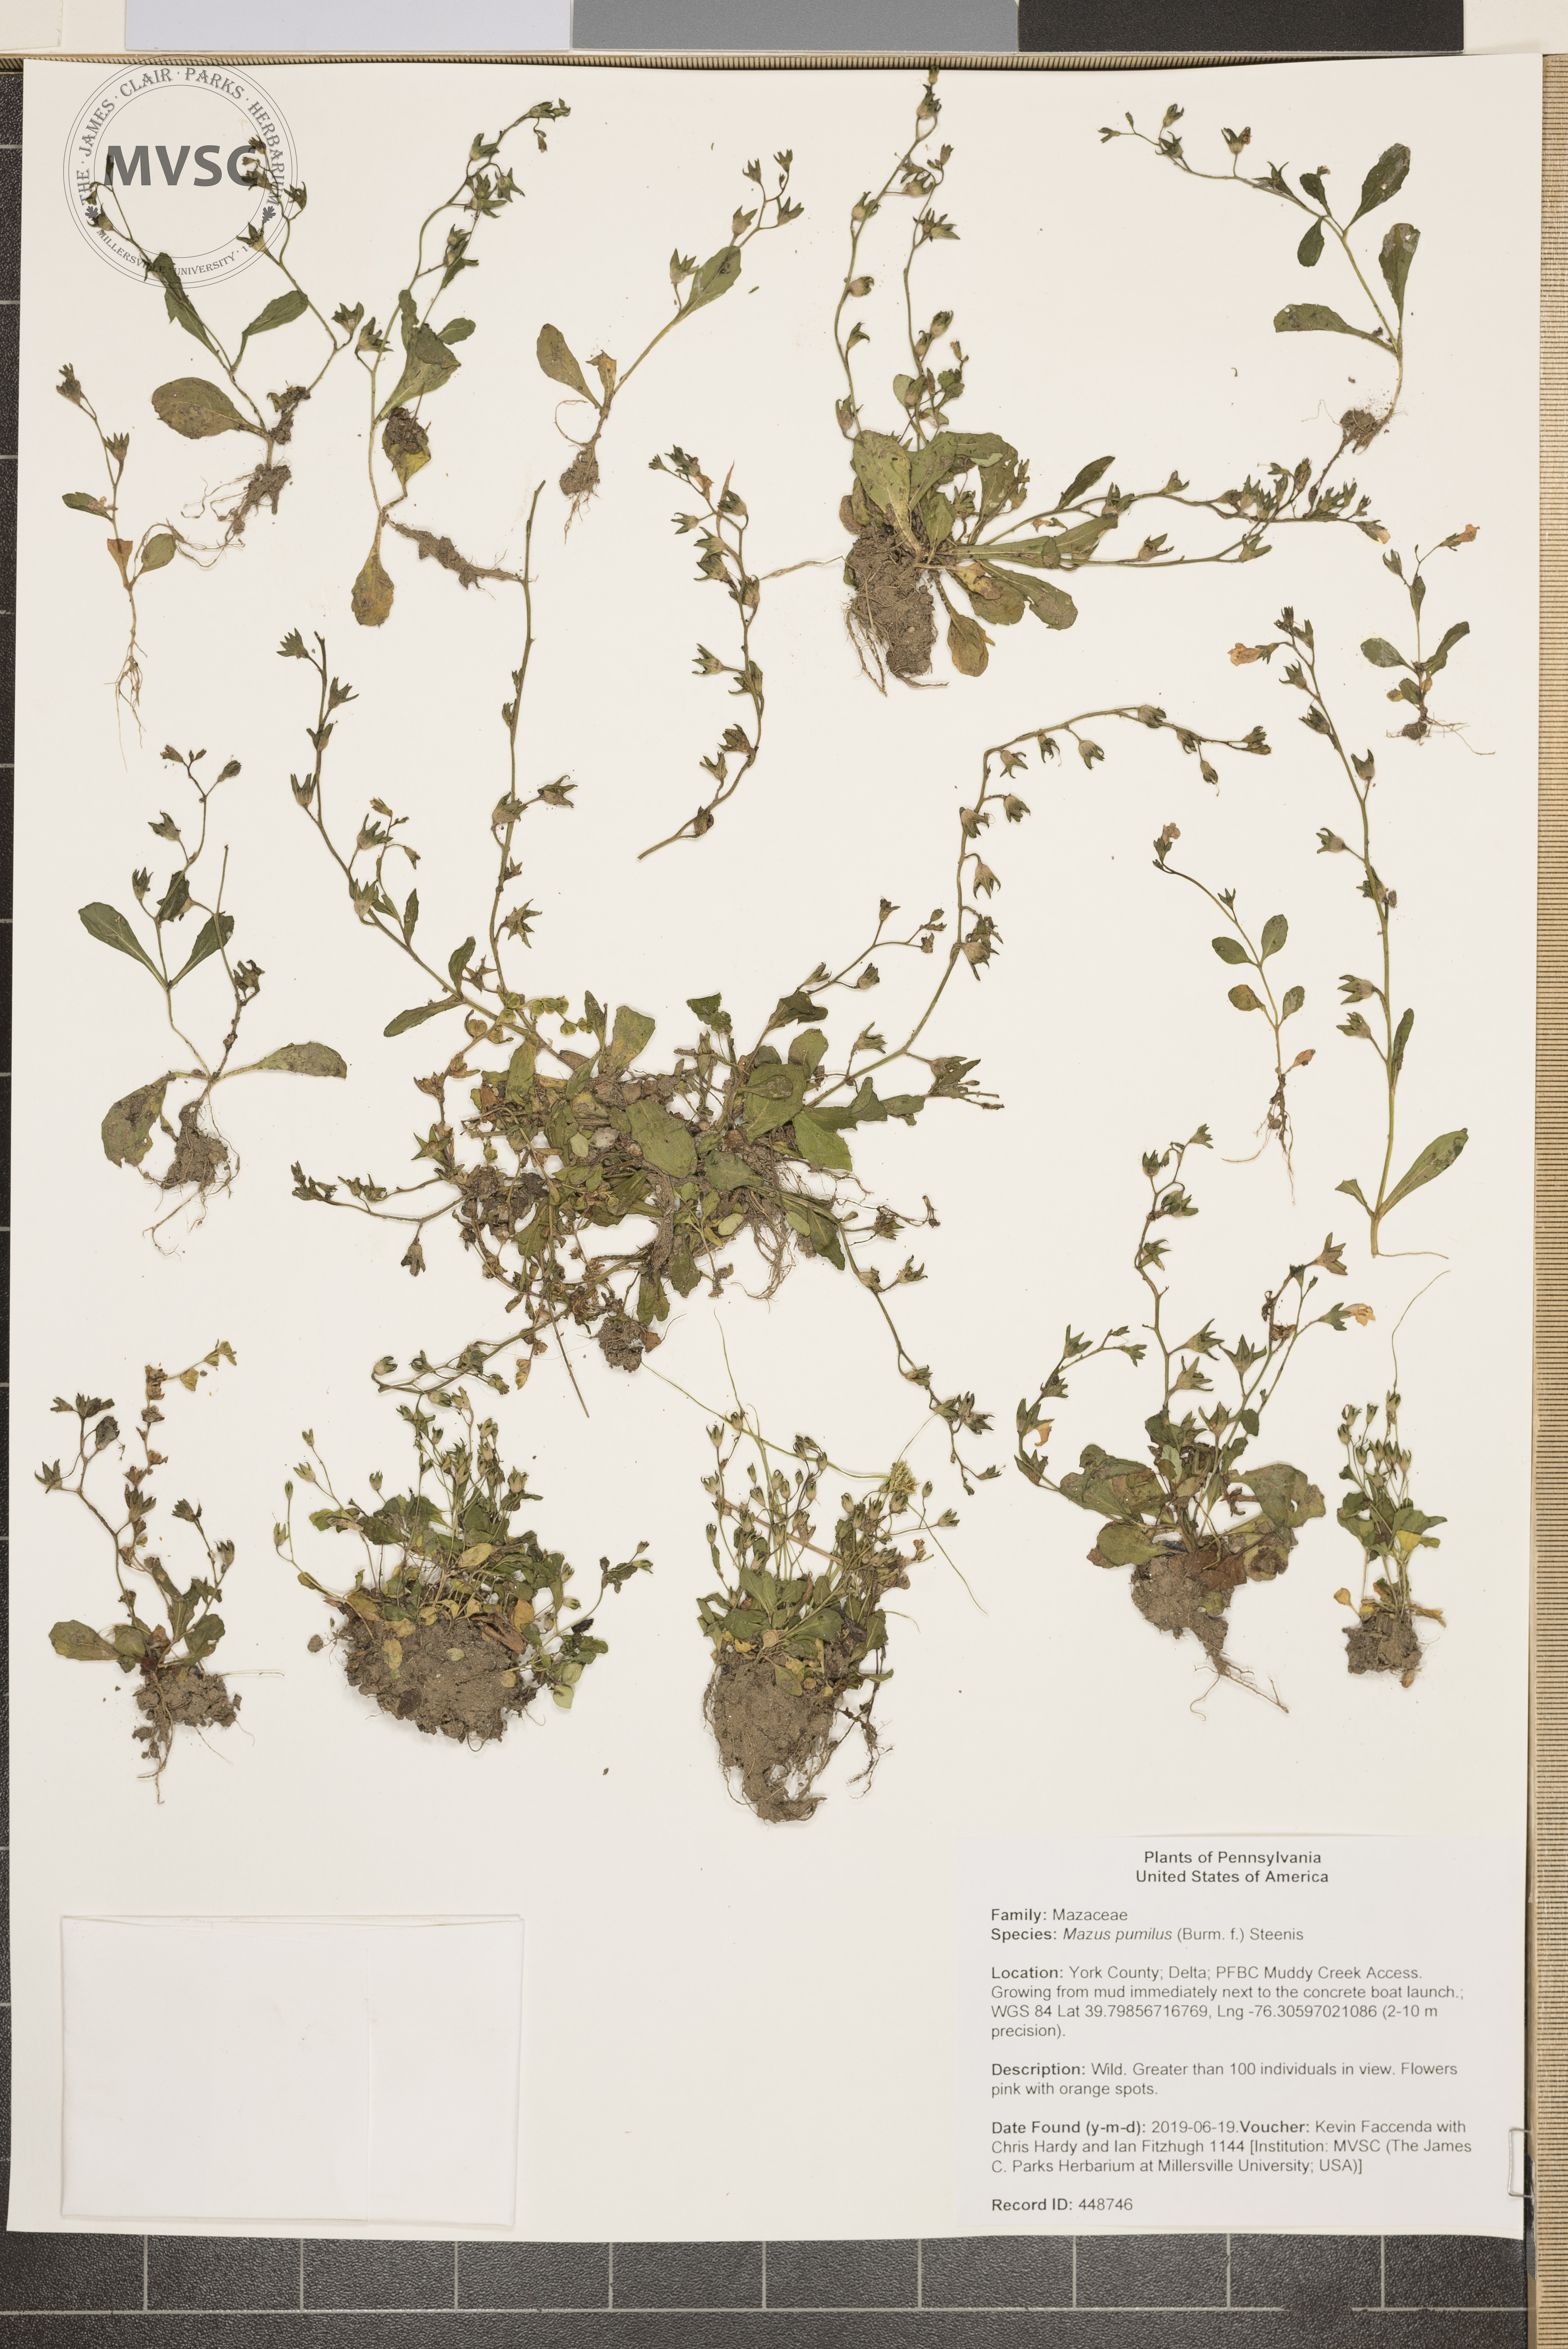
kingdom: Plantae
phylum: Tracheophyta
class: Magnoliopsida
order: Lamiales
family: Mazaceae
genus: Mazus
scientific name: Mazus pumilus
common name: Japanese mazus
